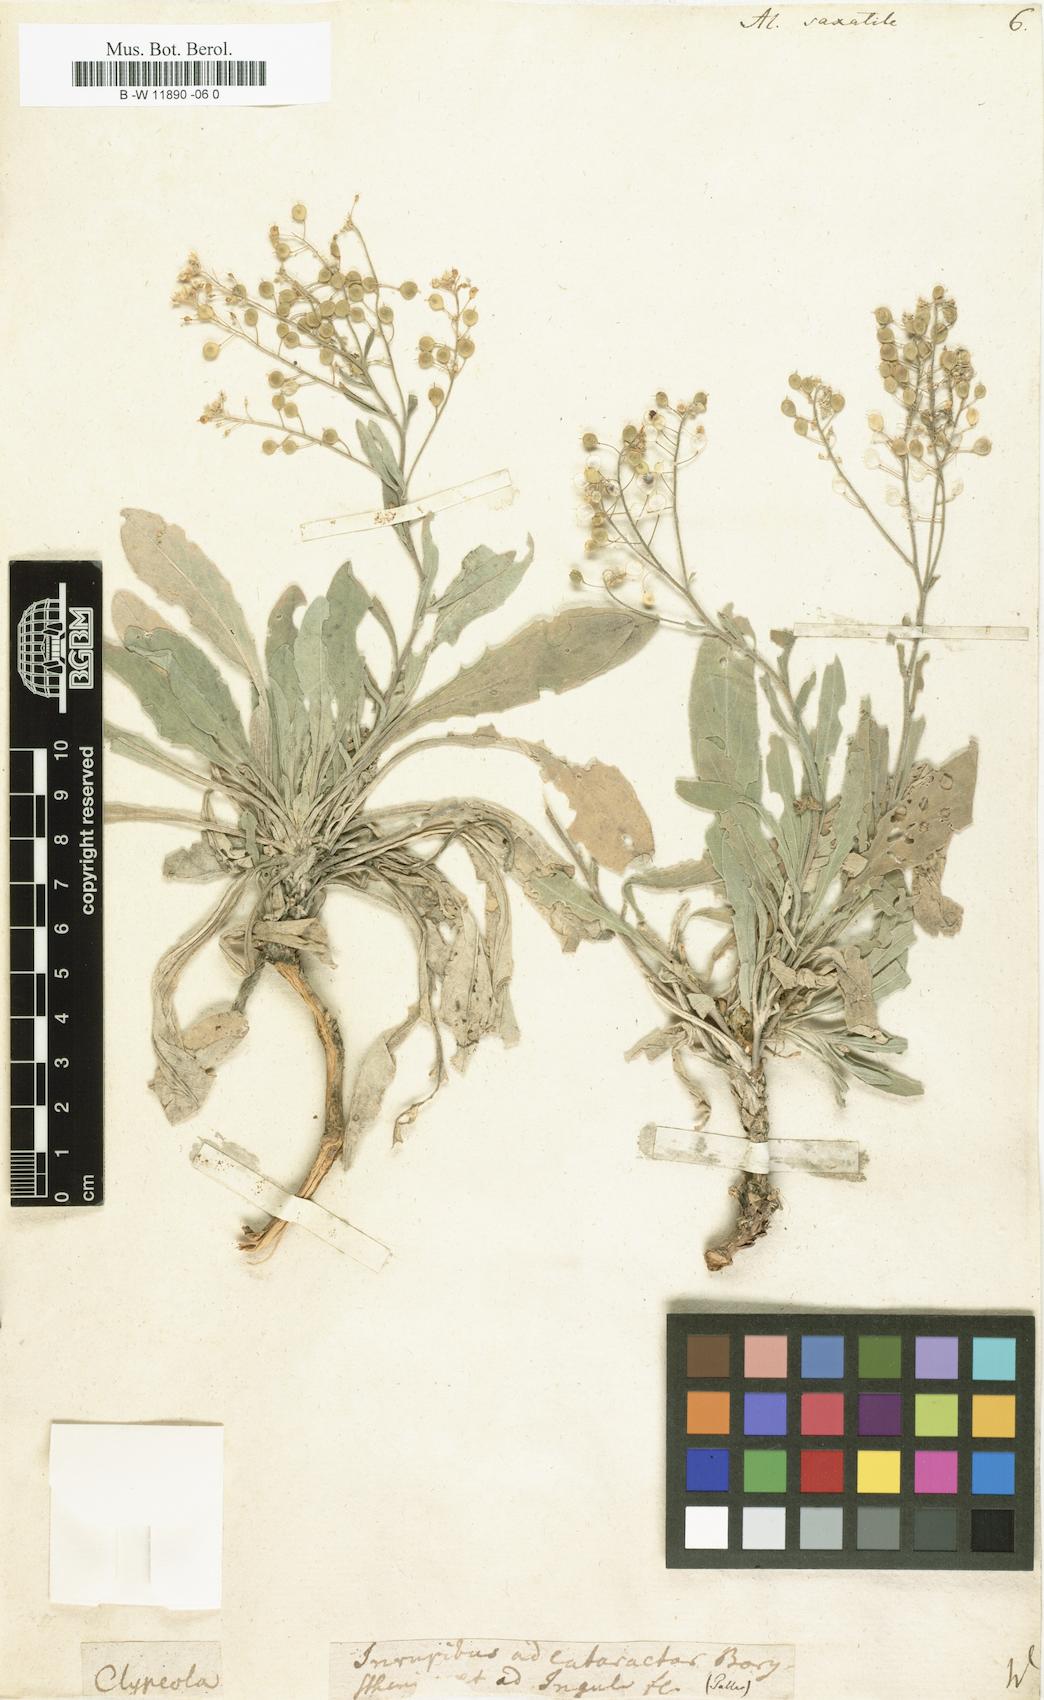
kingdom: Plantae
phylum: Tracheophyta
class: Magnoliopsida
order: Brassicales
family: Brassicaceae
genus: Aurinia
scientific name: Aurinia saxatilis
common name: Golden-tuft alyssum
